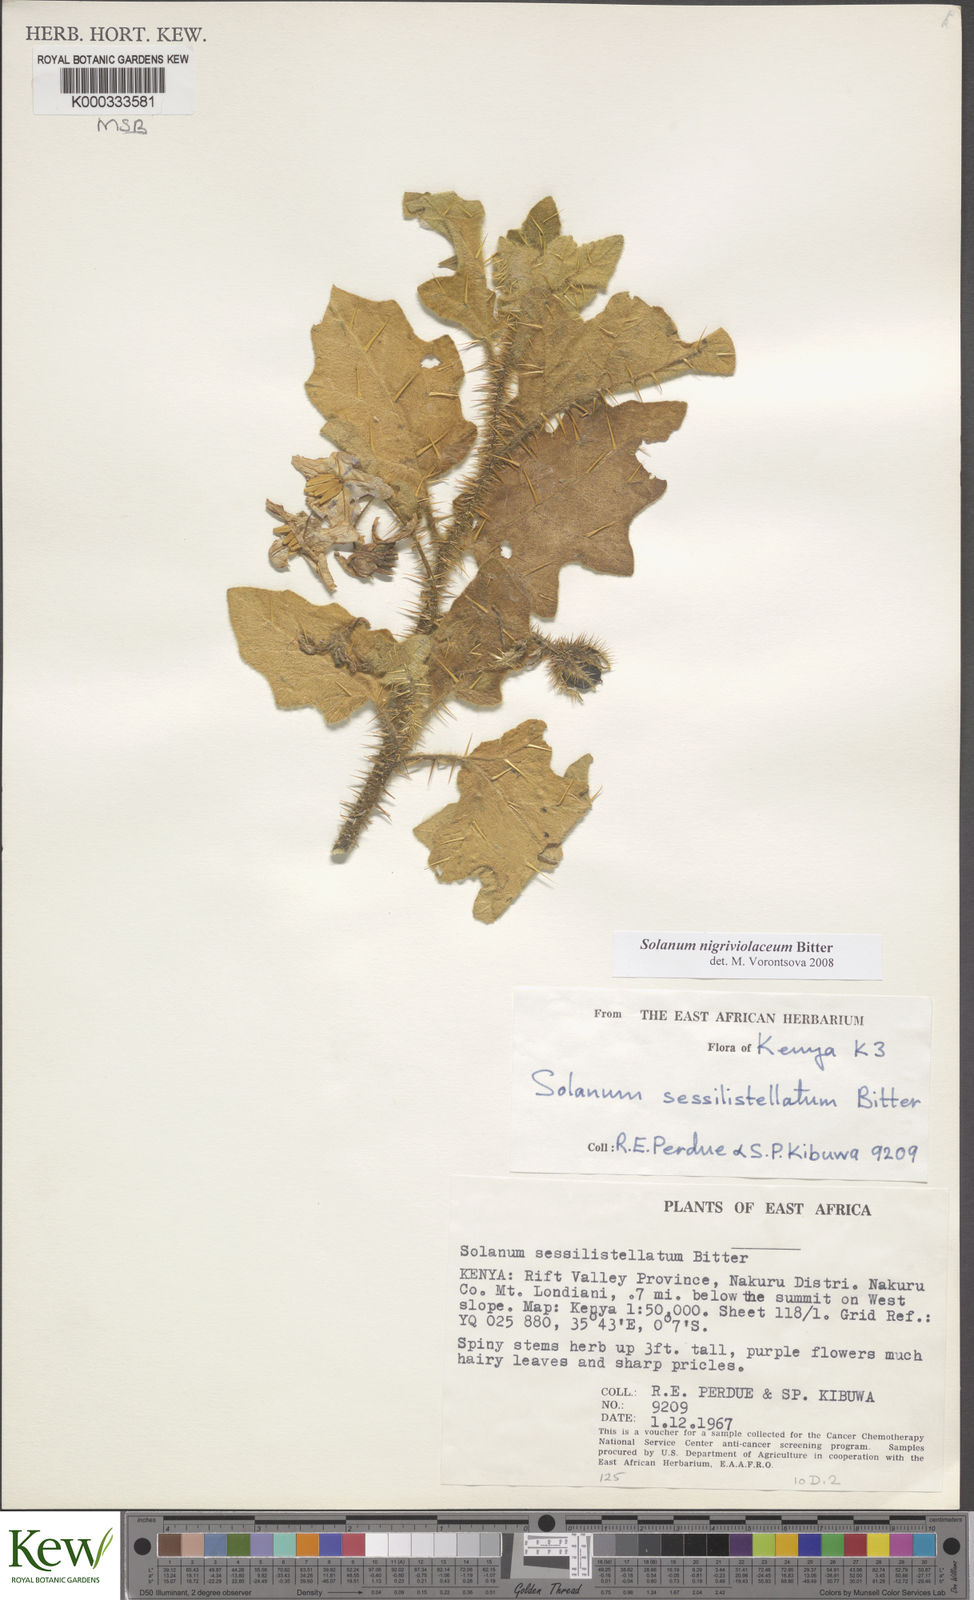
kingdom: Plantae
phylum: Tracheophyta
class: Magnoliopsida
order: Solanales
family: Solanaceae
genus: Solanum
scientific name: Solanum nigriviolaceum
